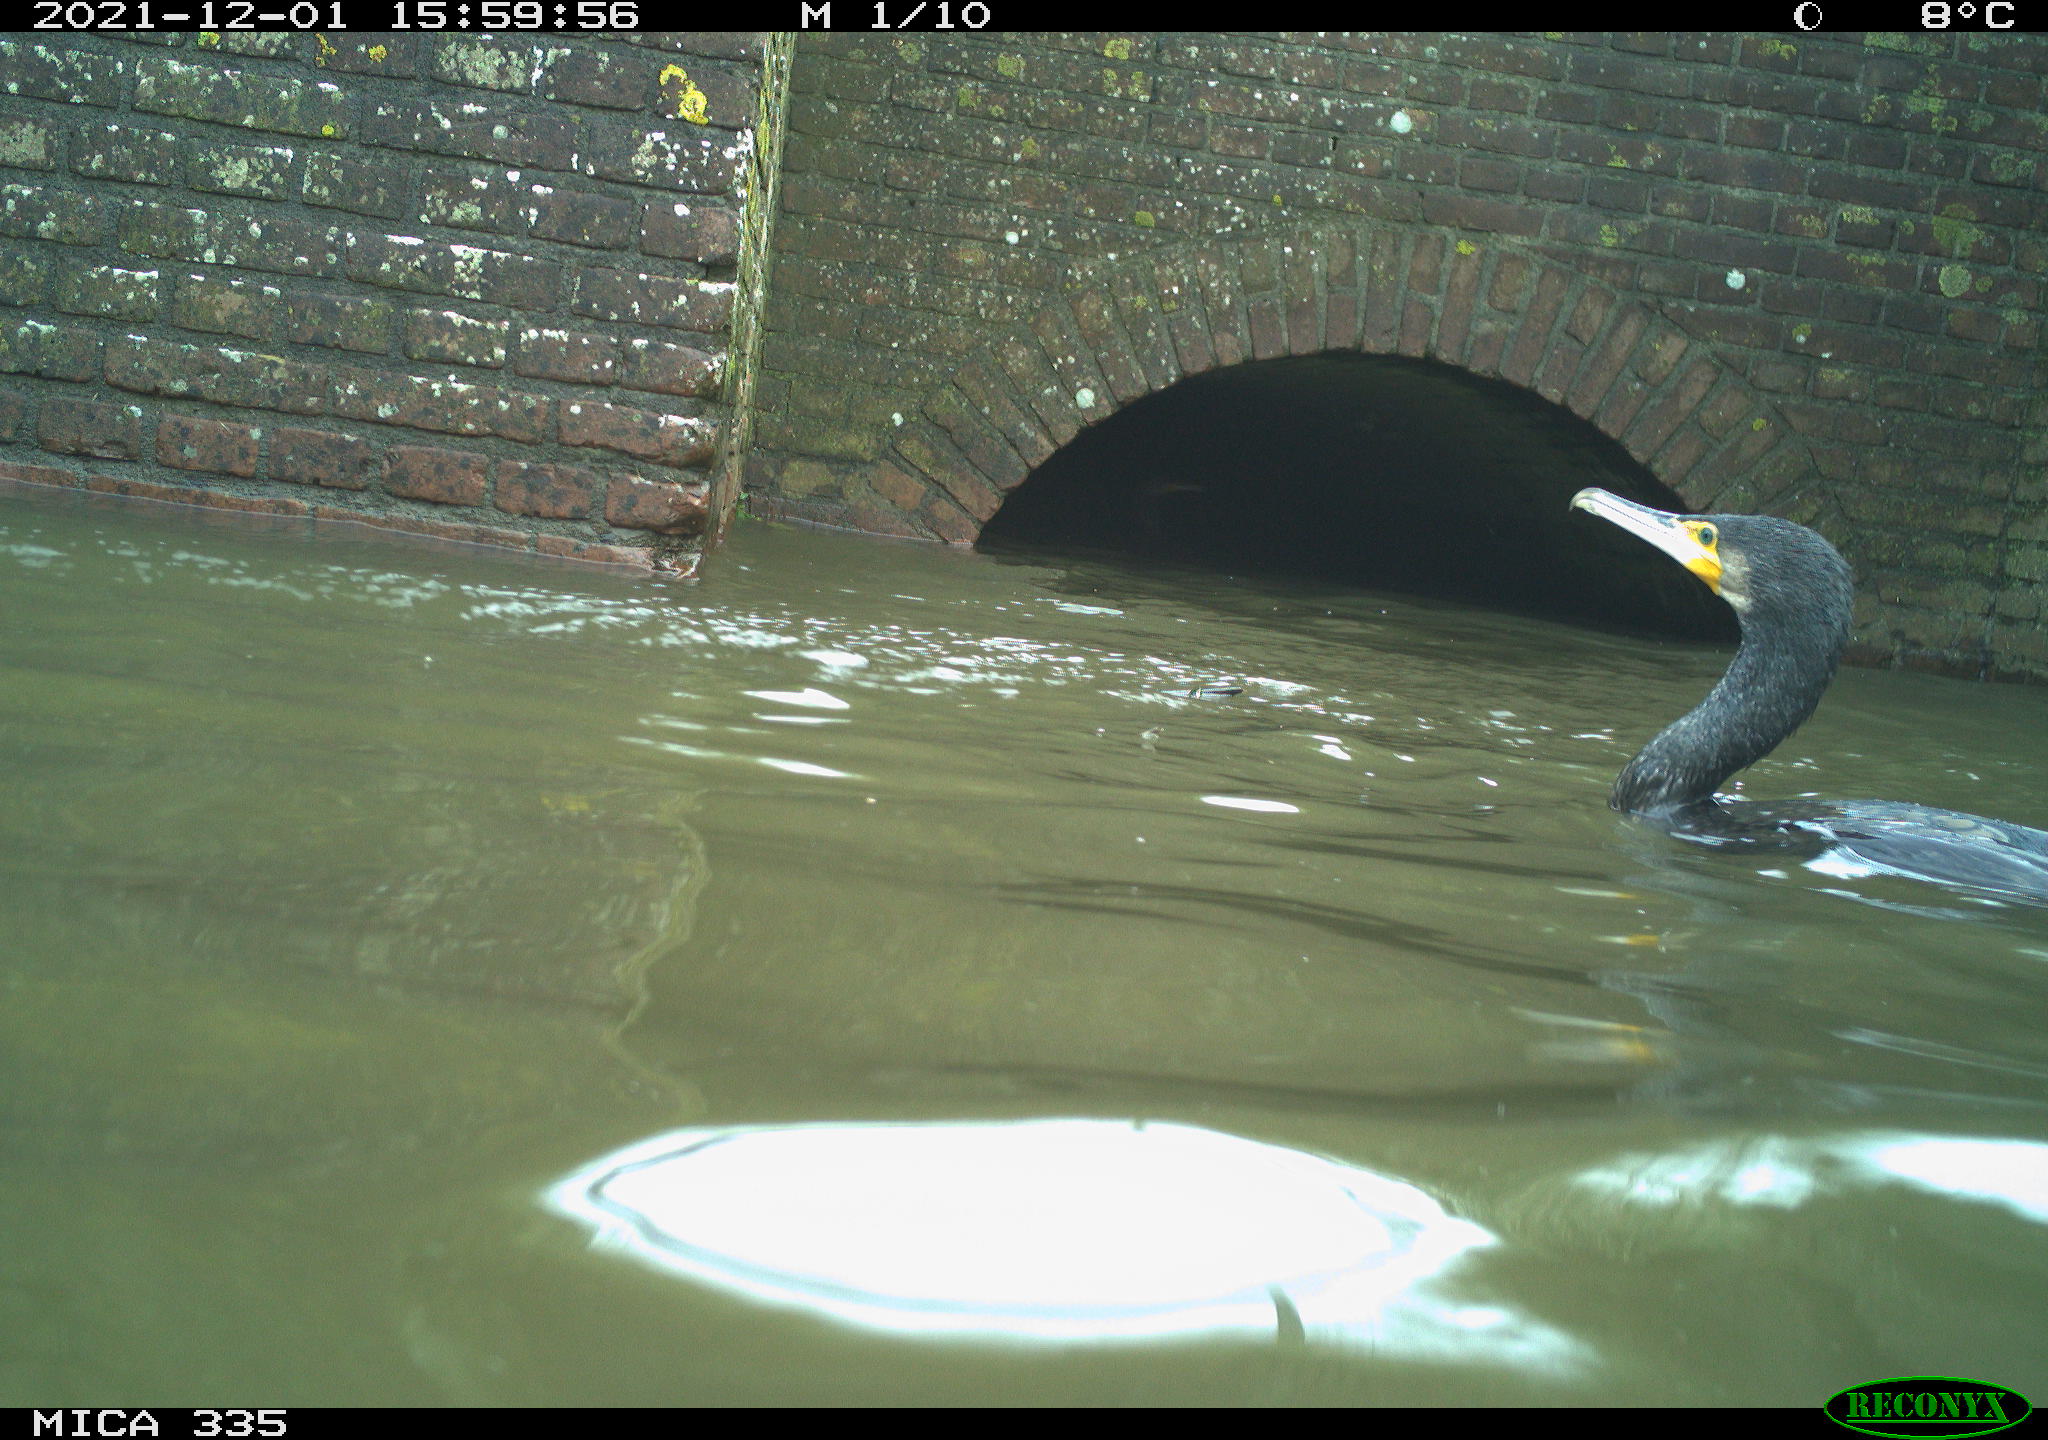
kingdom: Animalia
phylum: Chordata
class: Aves
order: Suliformes
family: Phalacrocoracidae
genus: Phalacrocorax
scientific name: Phalacrocorax carbo
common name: Great cormorant
